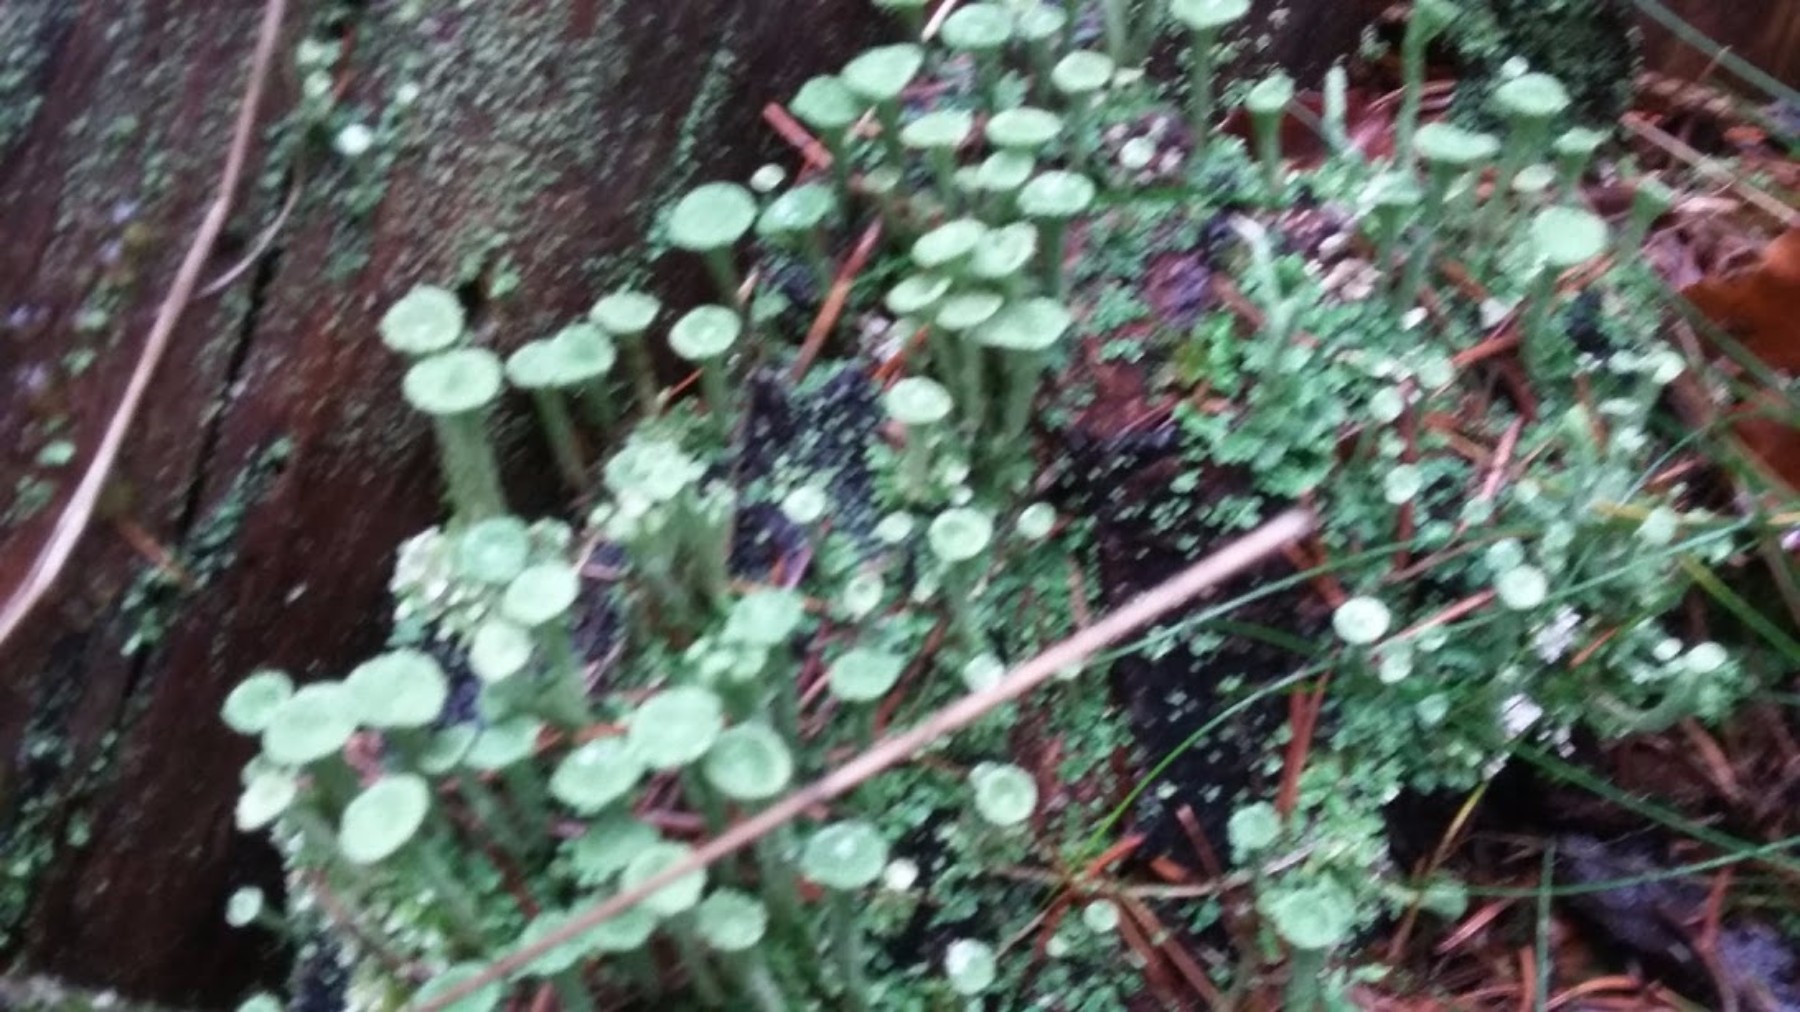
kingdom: Fungi
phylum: Ascomycota
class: Lecanoromycetes
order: Lecanorales
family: Cladoniaceae
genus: Cladonia
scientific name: Cladonia fimbriata
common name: bleggrøn bægerlav
